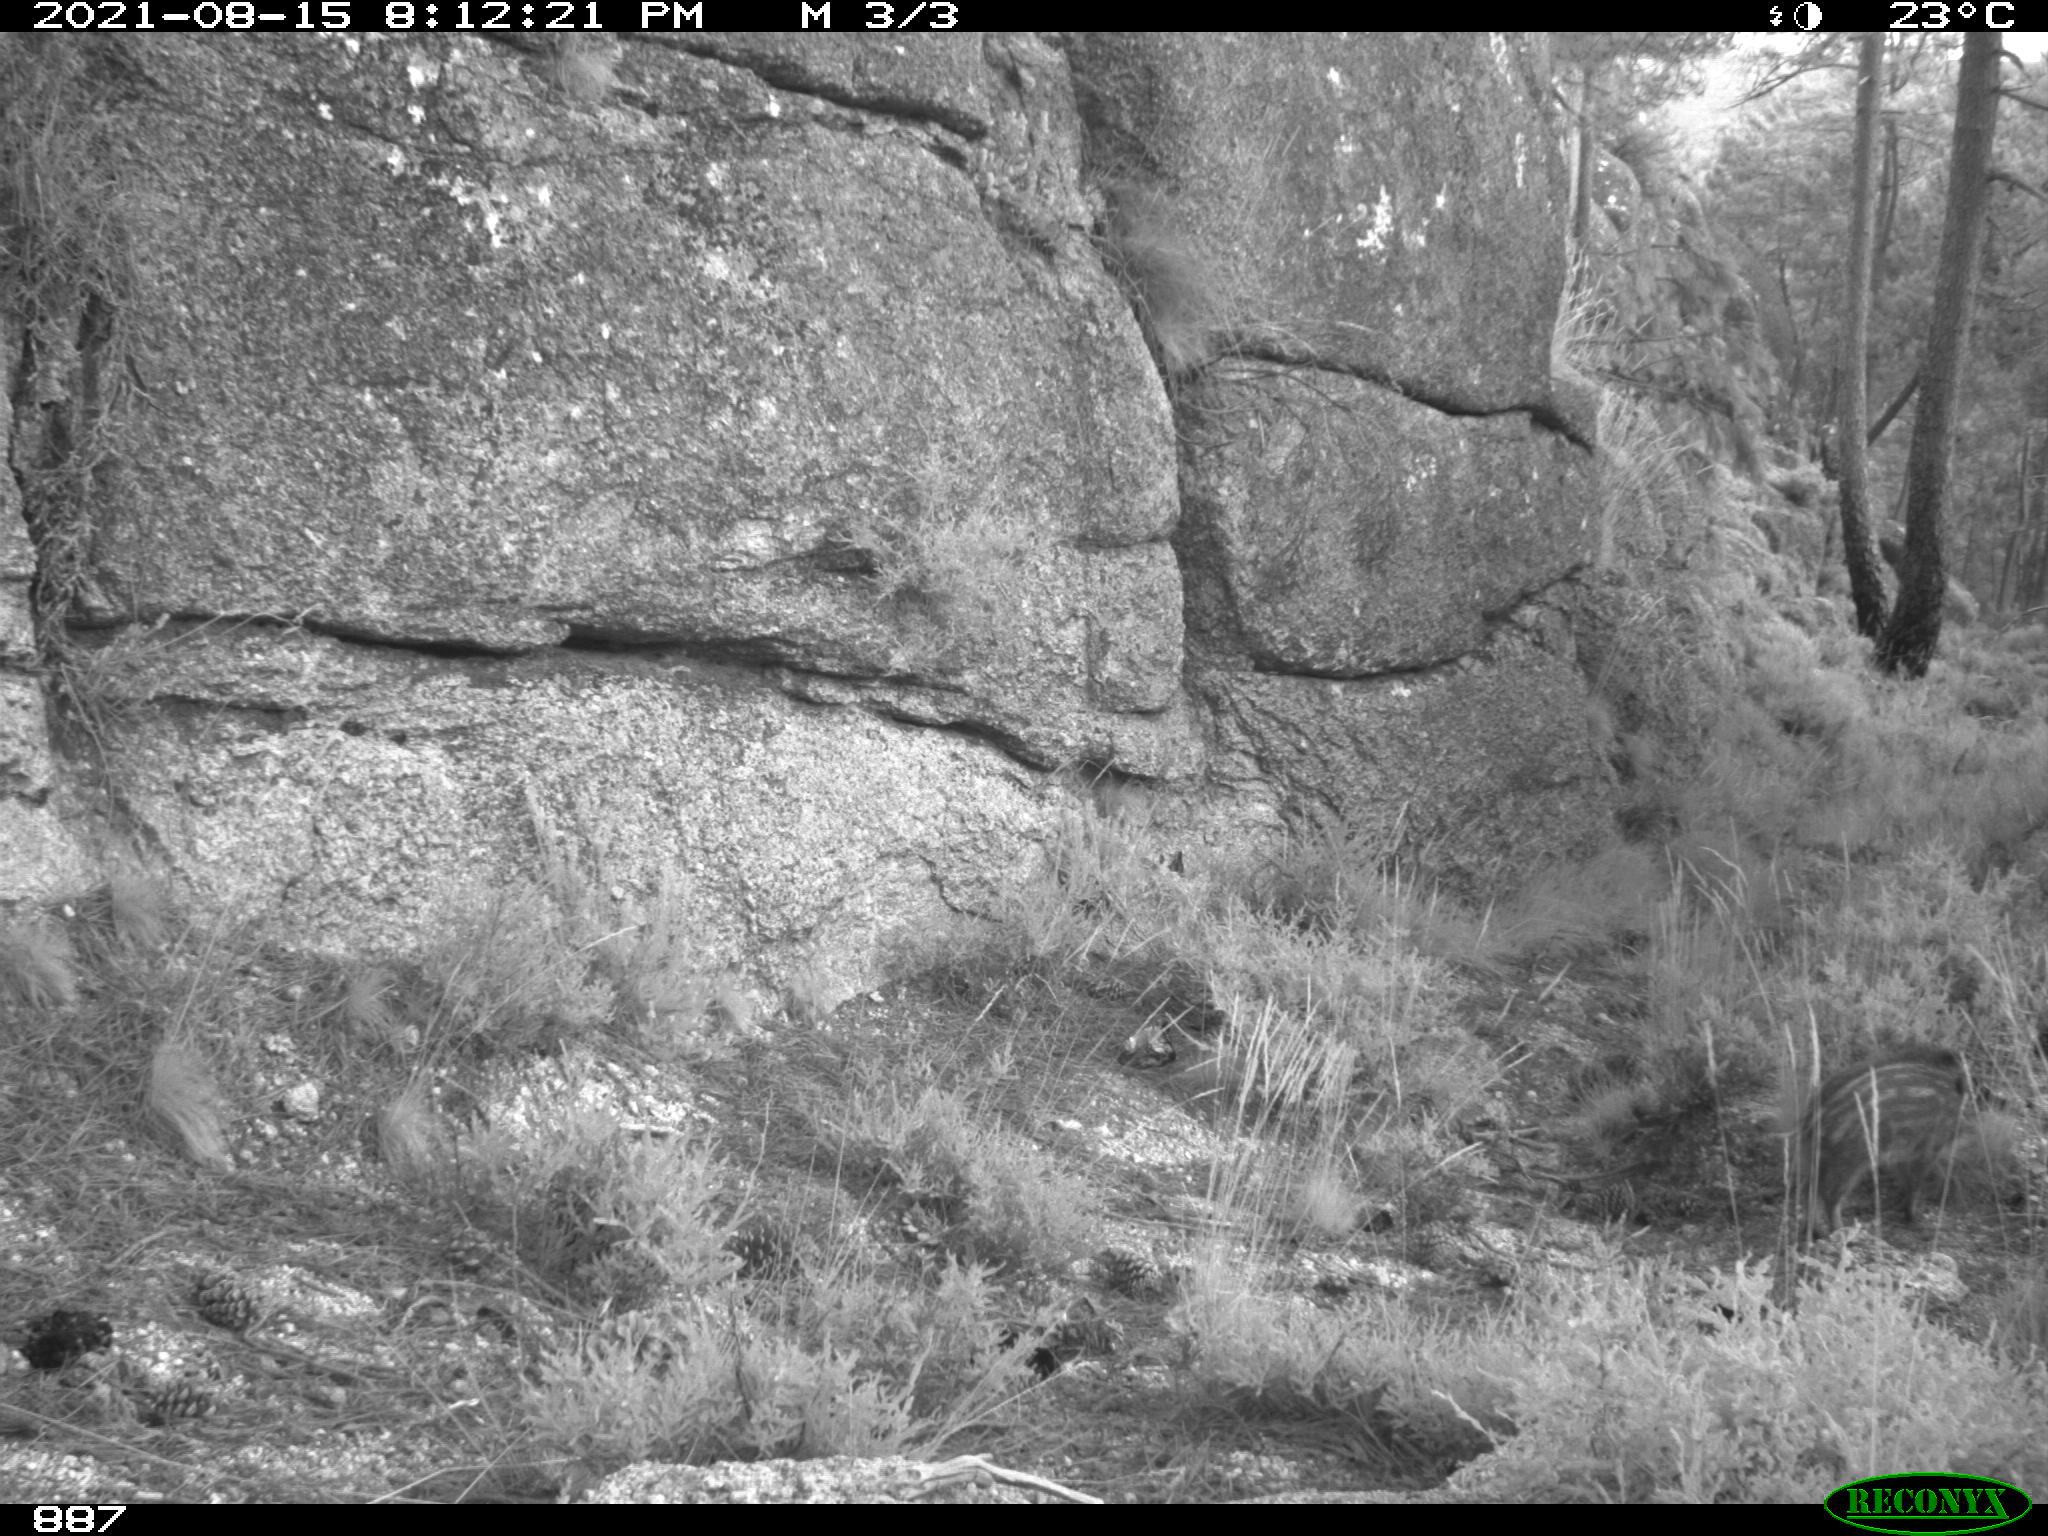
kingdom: Animalia
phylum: Chordata
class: Mammalia
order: Artiodactyla
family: Suidae
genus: Sus
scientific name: Sus scrofa
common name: Wild boar
